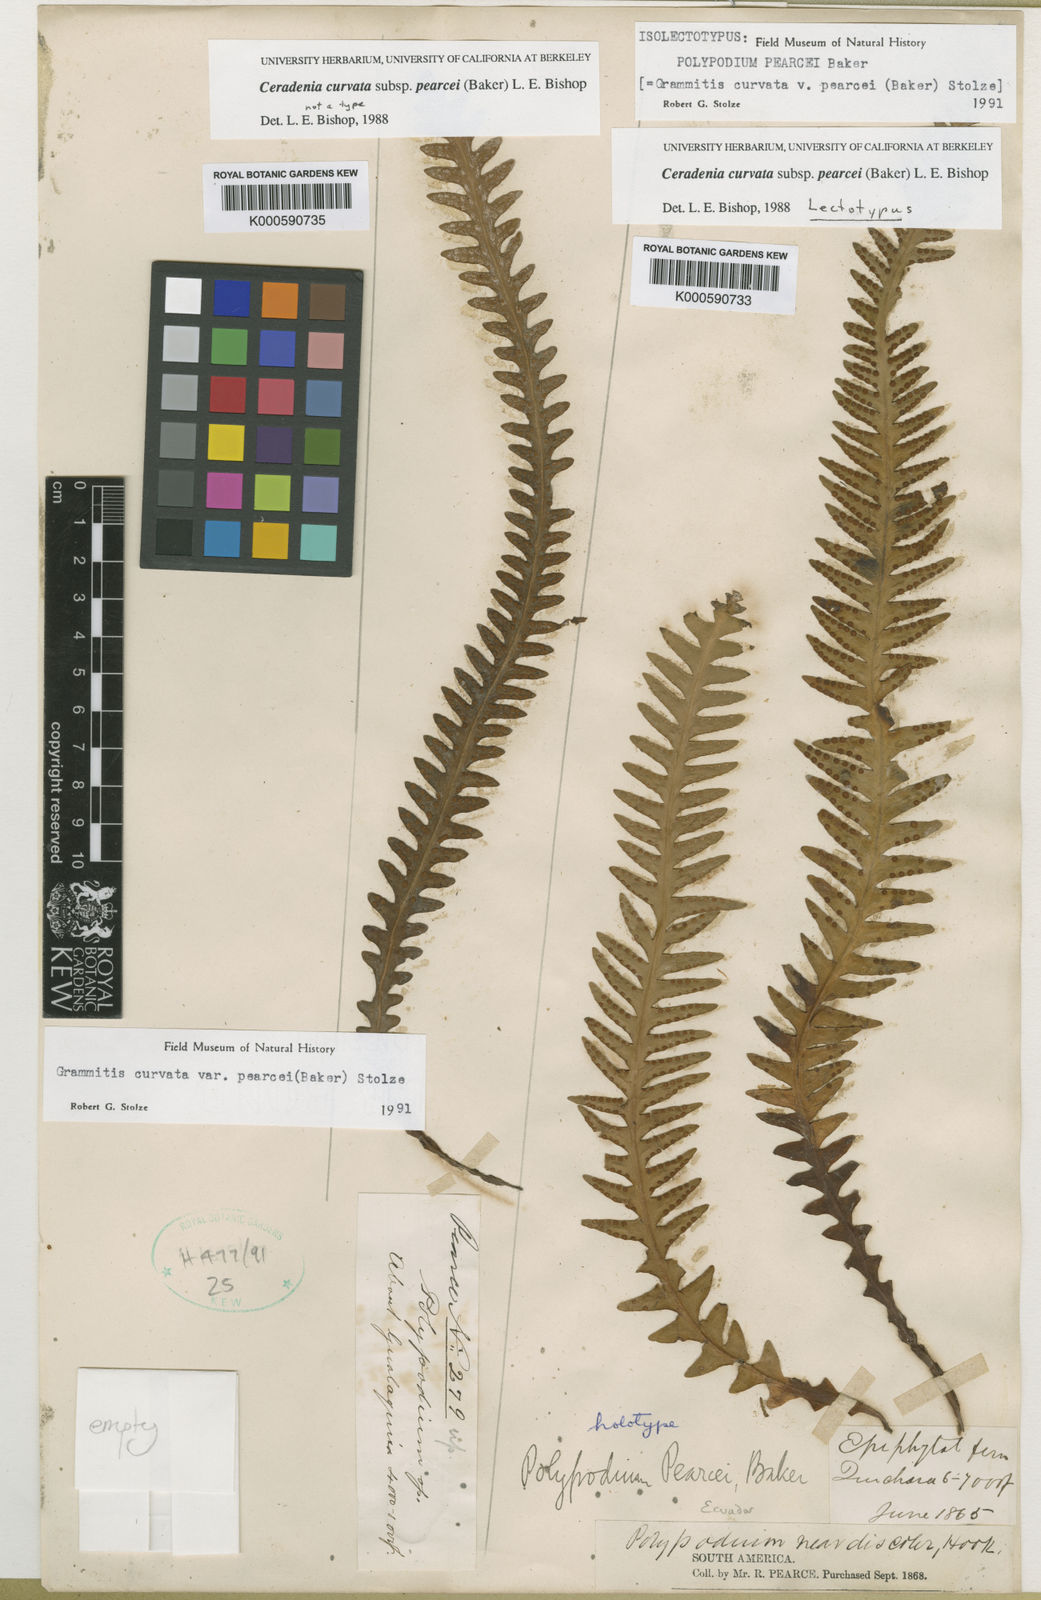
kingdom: Plantae
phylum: Tracheophyta
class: Polypodiopsida
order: Polypodiales
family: Polypodiaceae
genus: Ceradenia
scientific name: Ceradenia pearcei
